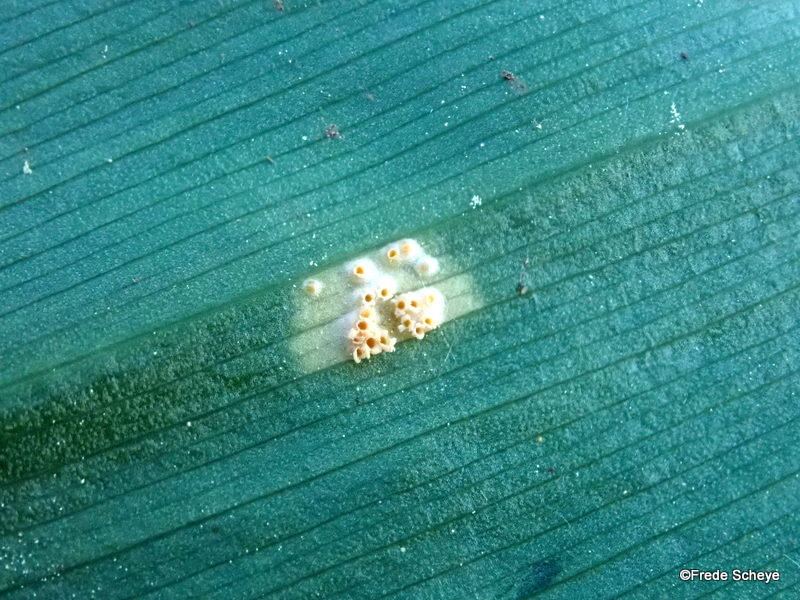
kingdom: Fungi
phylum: Basidiomycota
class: Pucciniomycetes
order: Pucciniales
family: Pucciniaceae
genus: Puccinia
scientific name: Puccinia sessilis
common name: Arum rust
